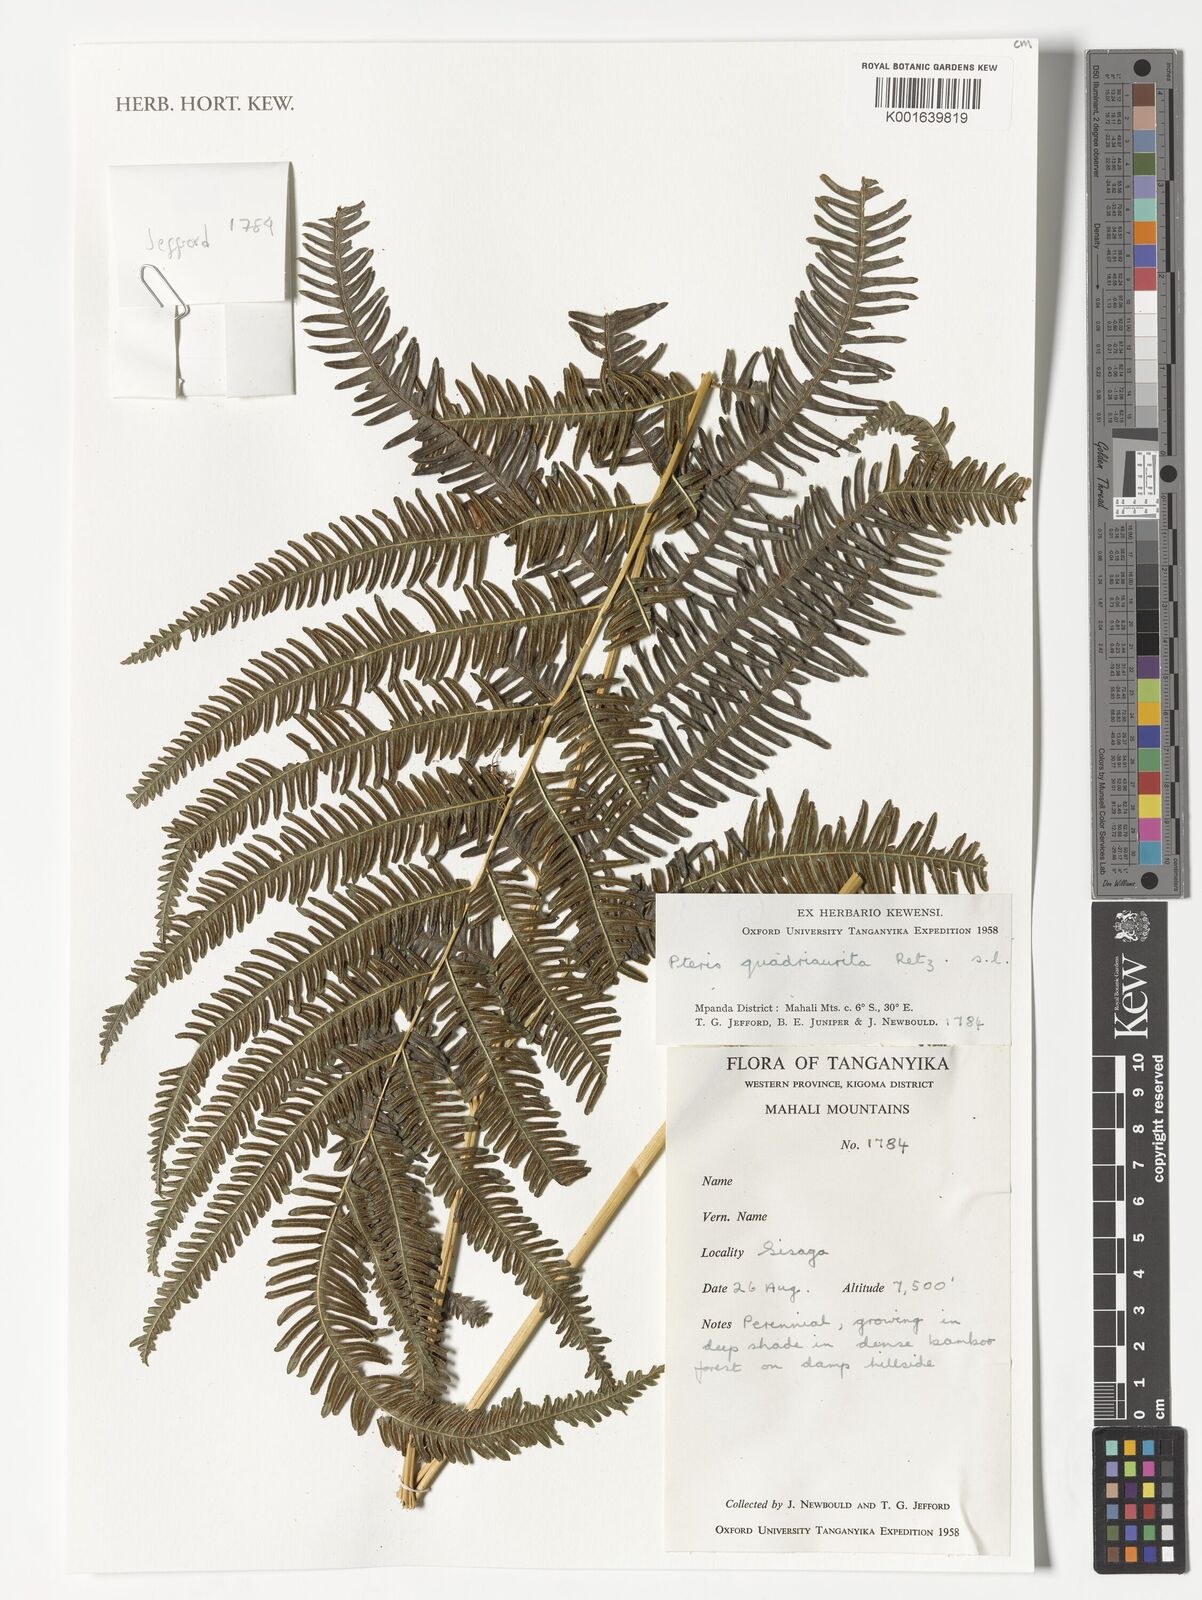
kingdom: Plantae
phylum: Tracheophyta
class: Polypodiopsida
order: Polypodiales
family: Pteridaceae
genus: Pteris
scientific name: Pteris quadriaurita
